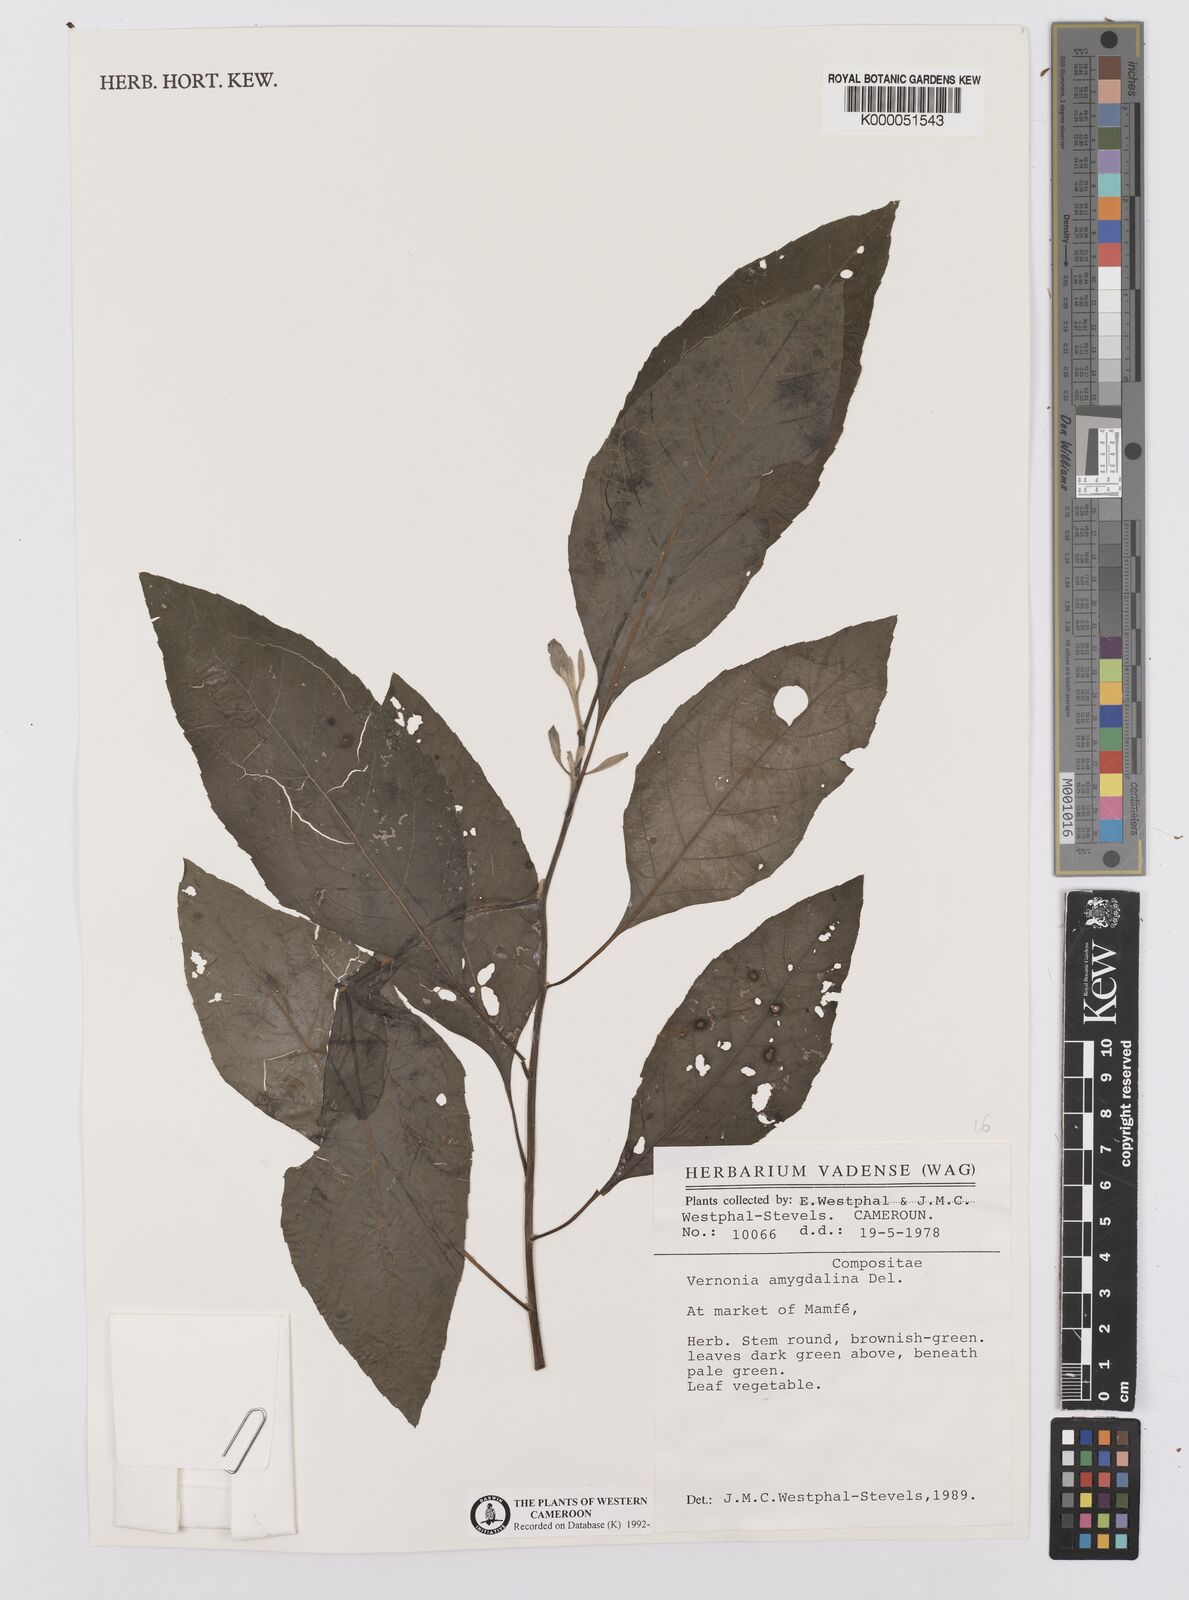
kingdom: Plantae
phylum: Tracheophyta
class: Magnoliopsida
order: Asterales
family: Asteraceae
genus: Gymnanthemum
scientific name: Gymnanthemum amygdalinum
